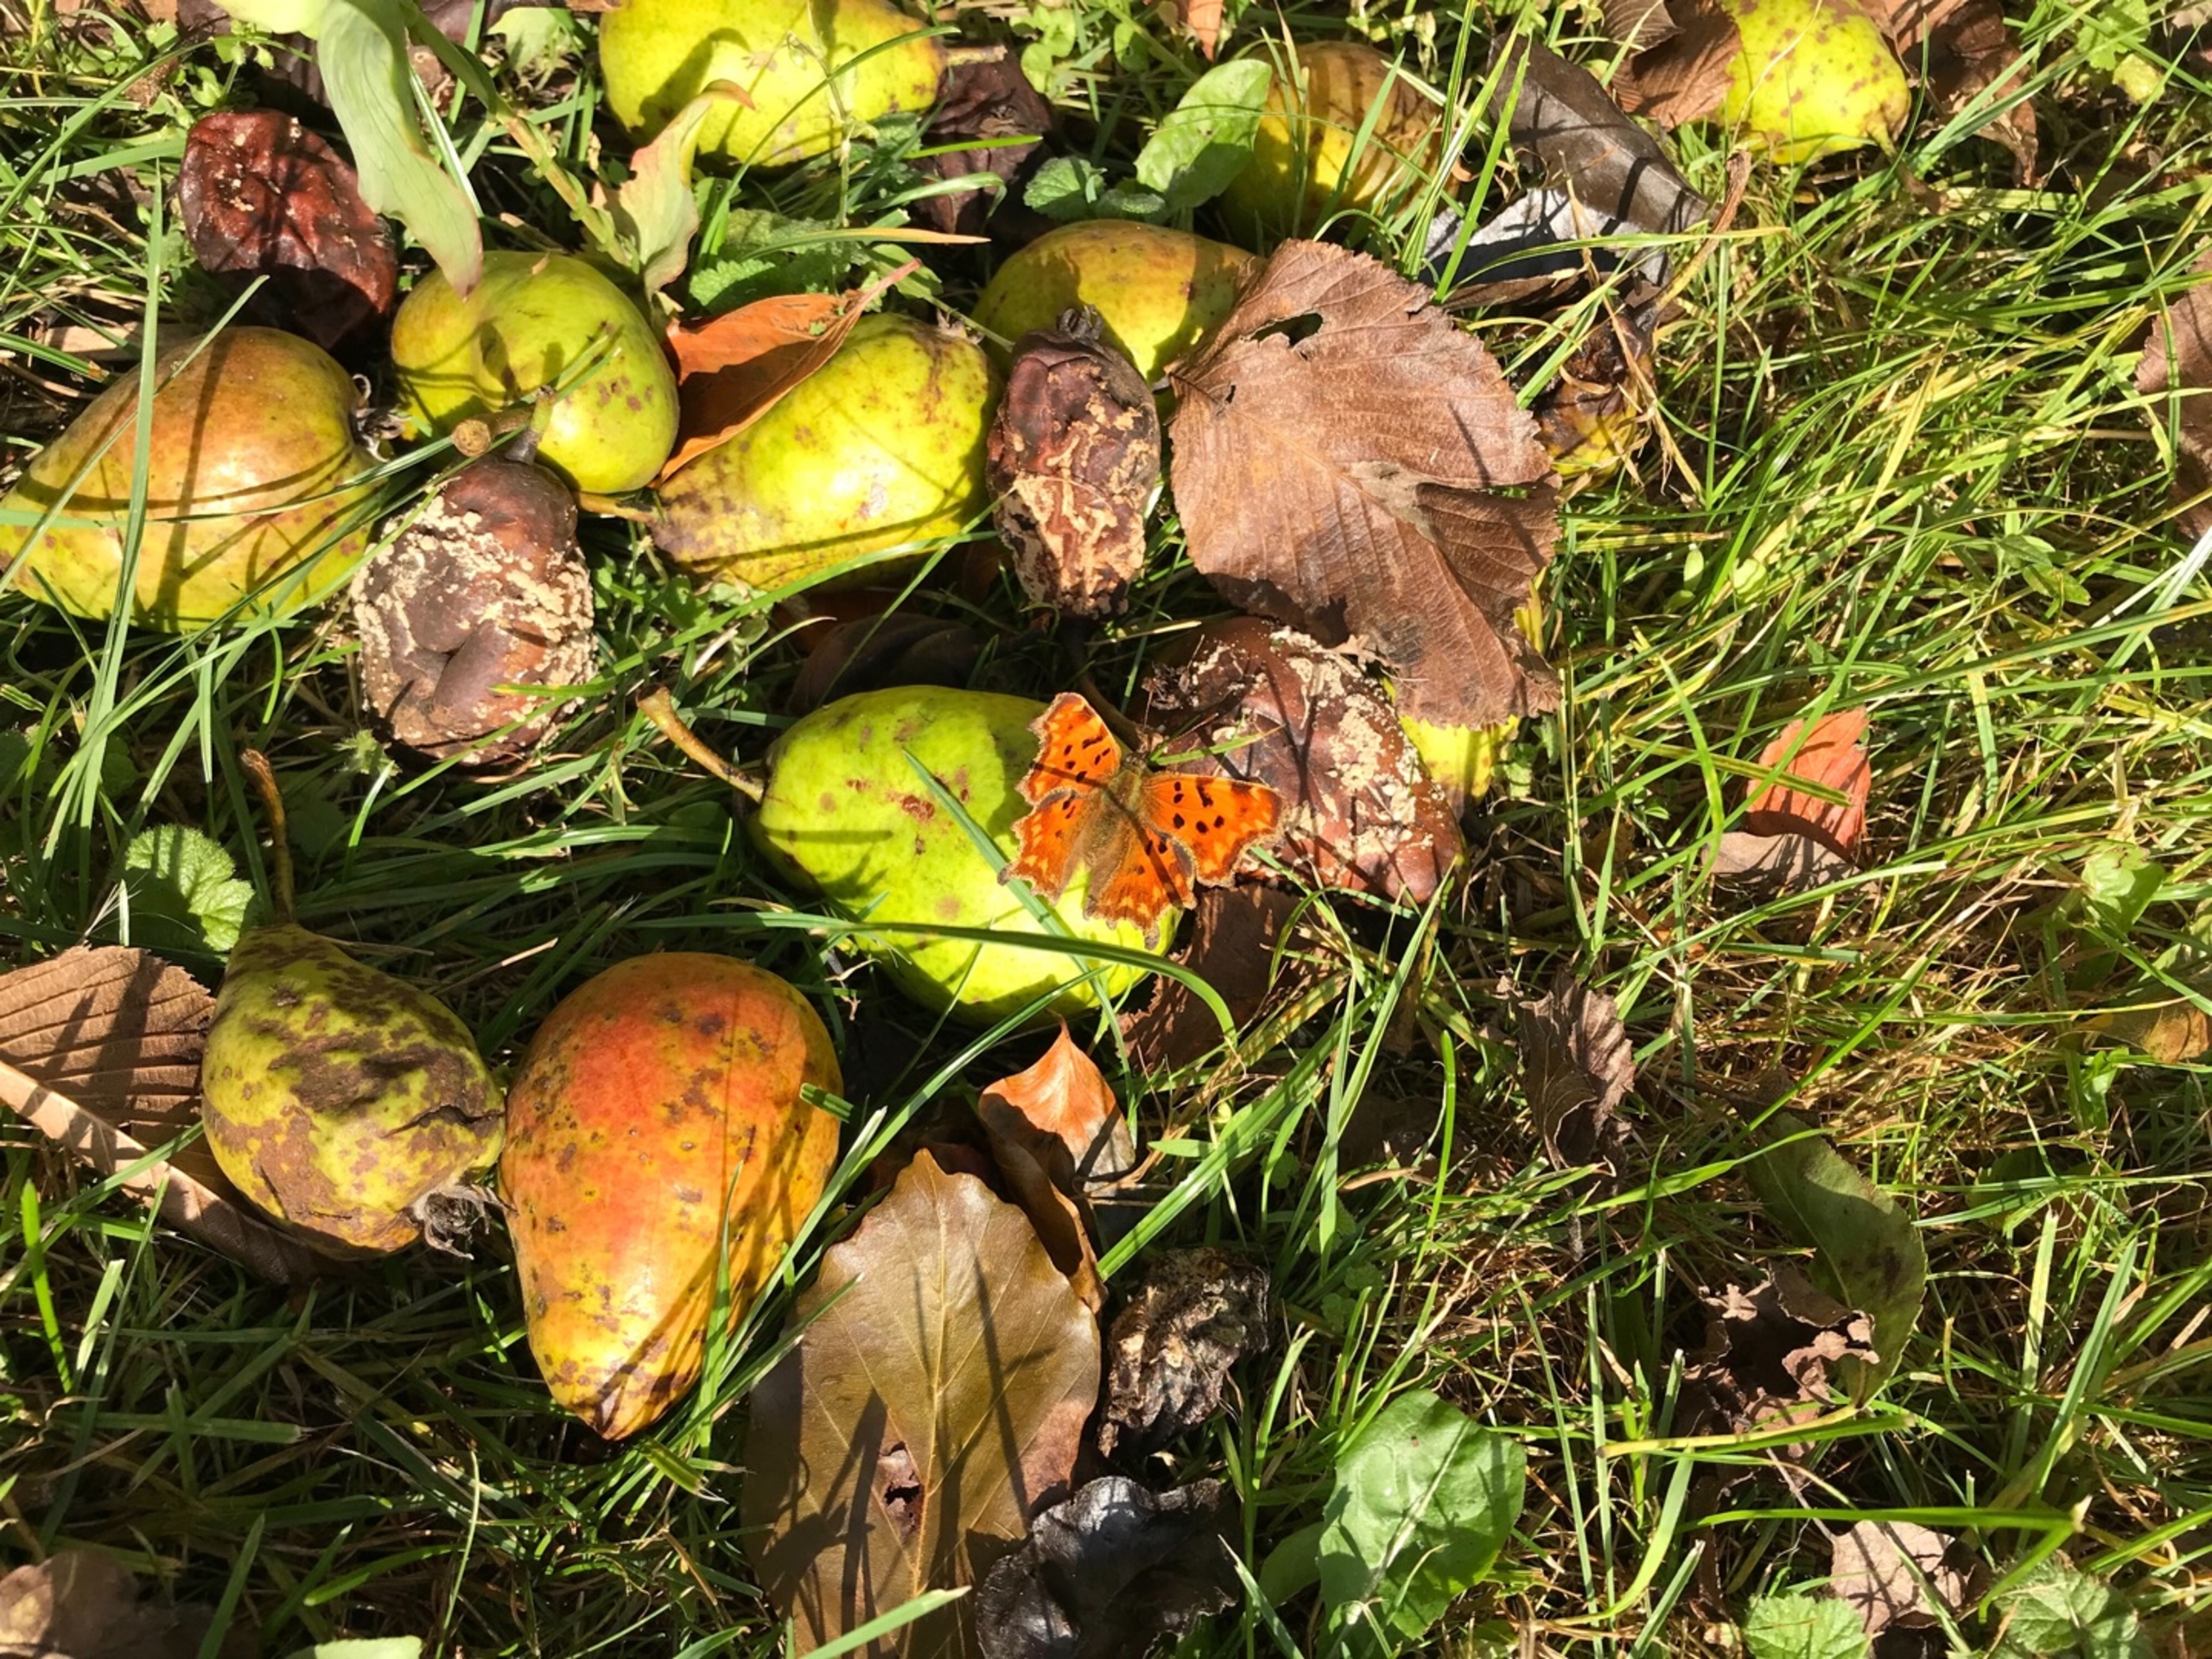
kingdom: Animalia
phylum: Arthropoda
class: Insecta
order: Lepidoptera
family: Nymphalidae
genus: Polygonia
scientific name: Polygonia c-album
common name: Det hvide C
